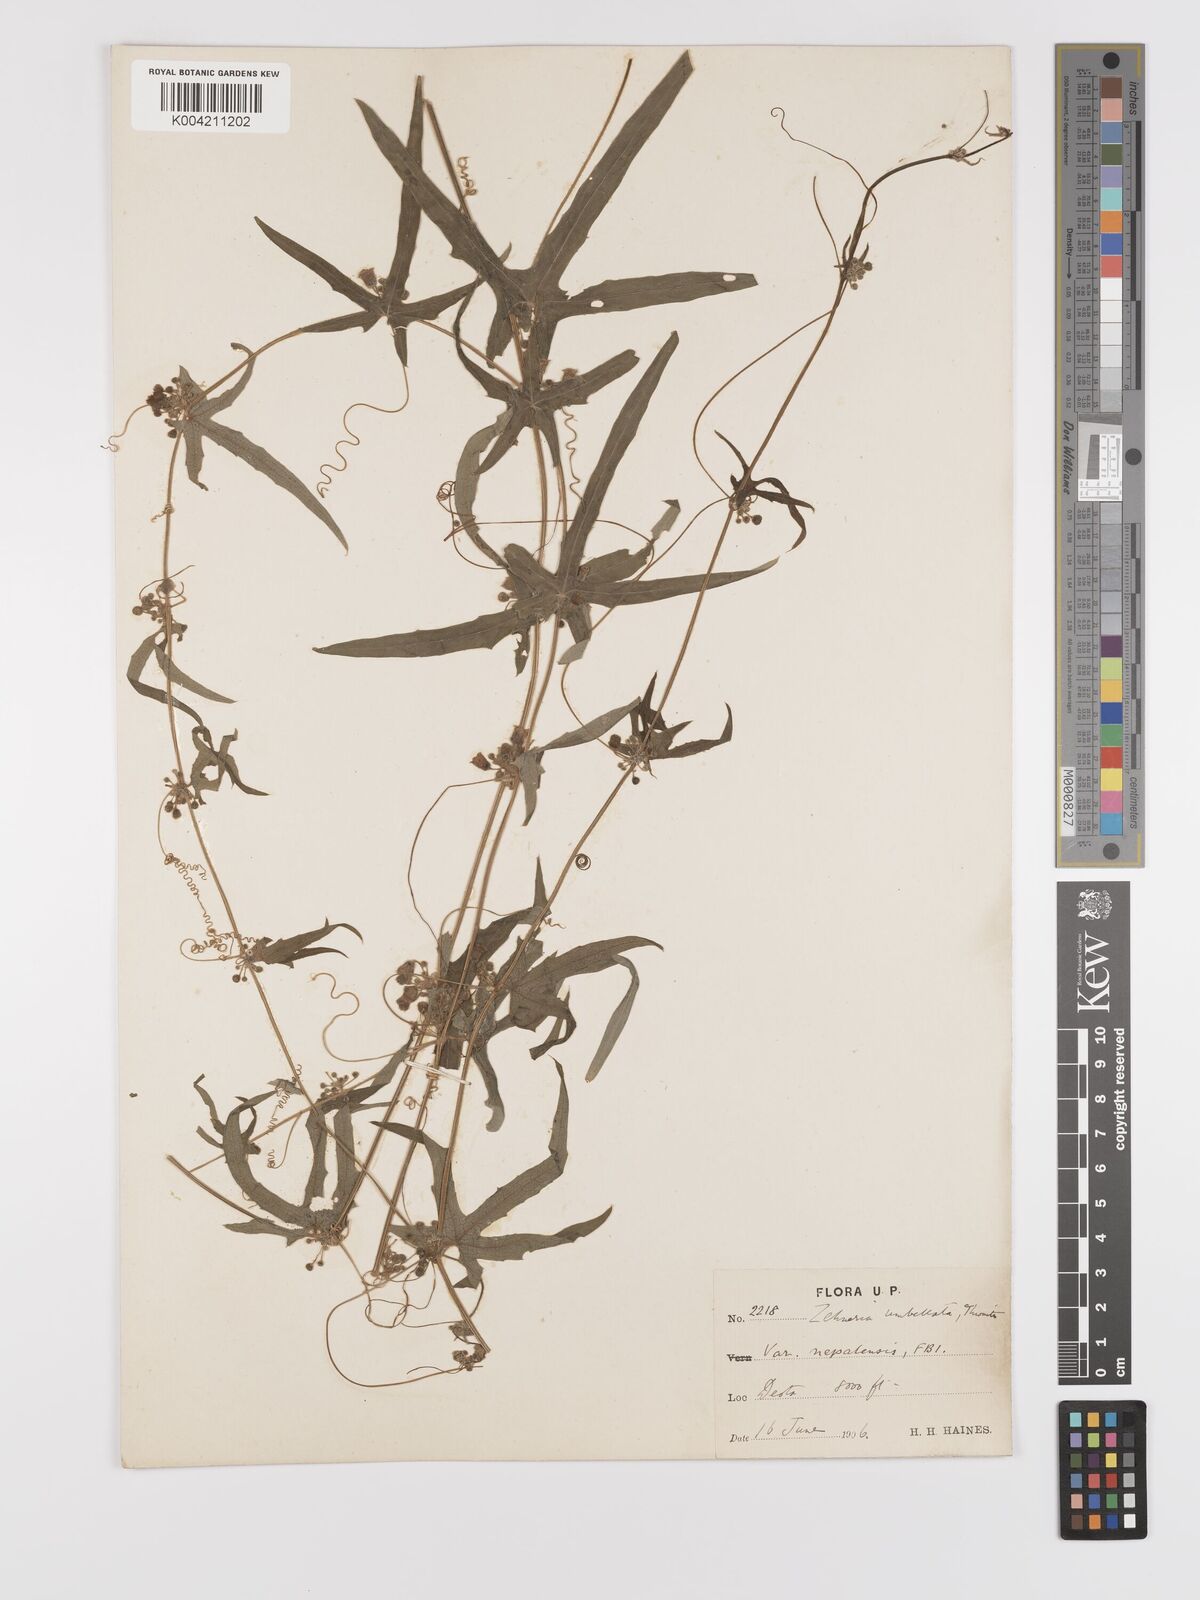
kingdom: Plantae
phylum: Tracheophyta
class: Magnoliopsida
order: Cucurbitales
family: Cucurbitaceae
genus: Solena
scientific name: Solena amplexicaulis
